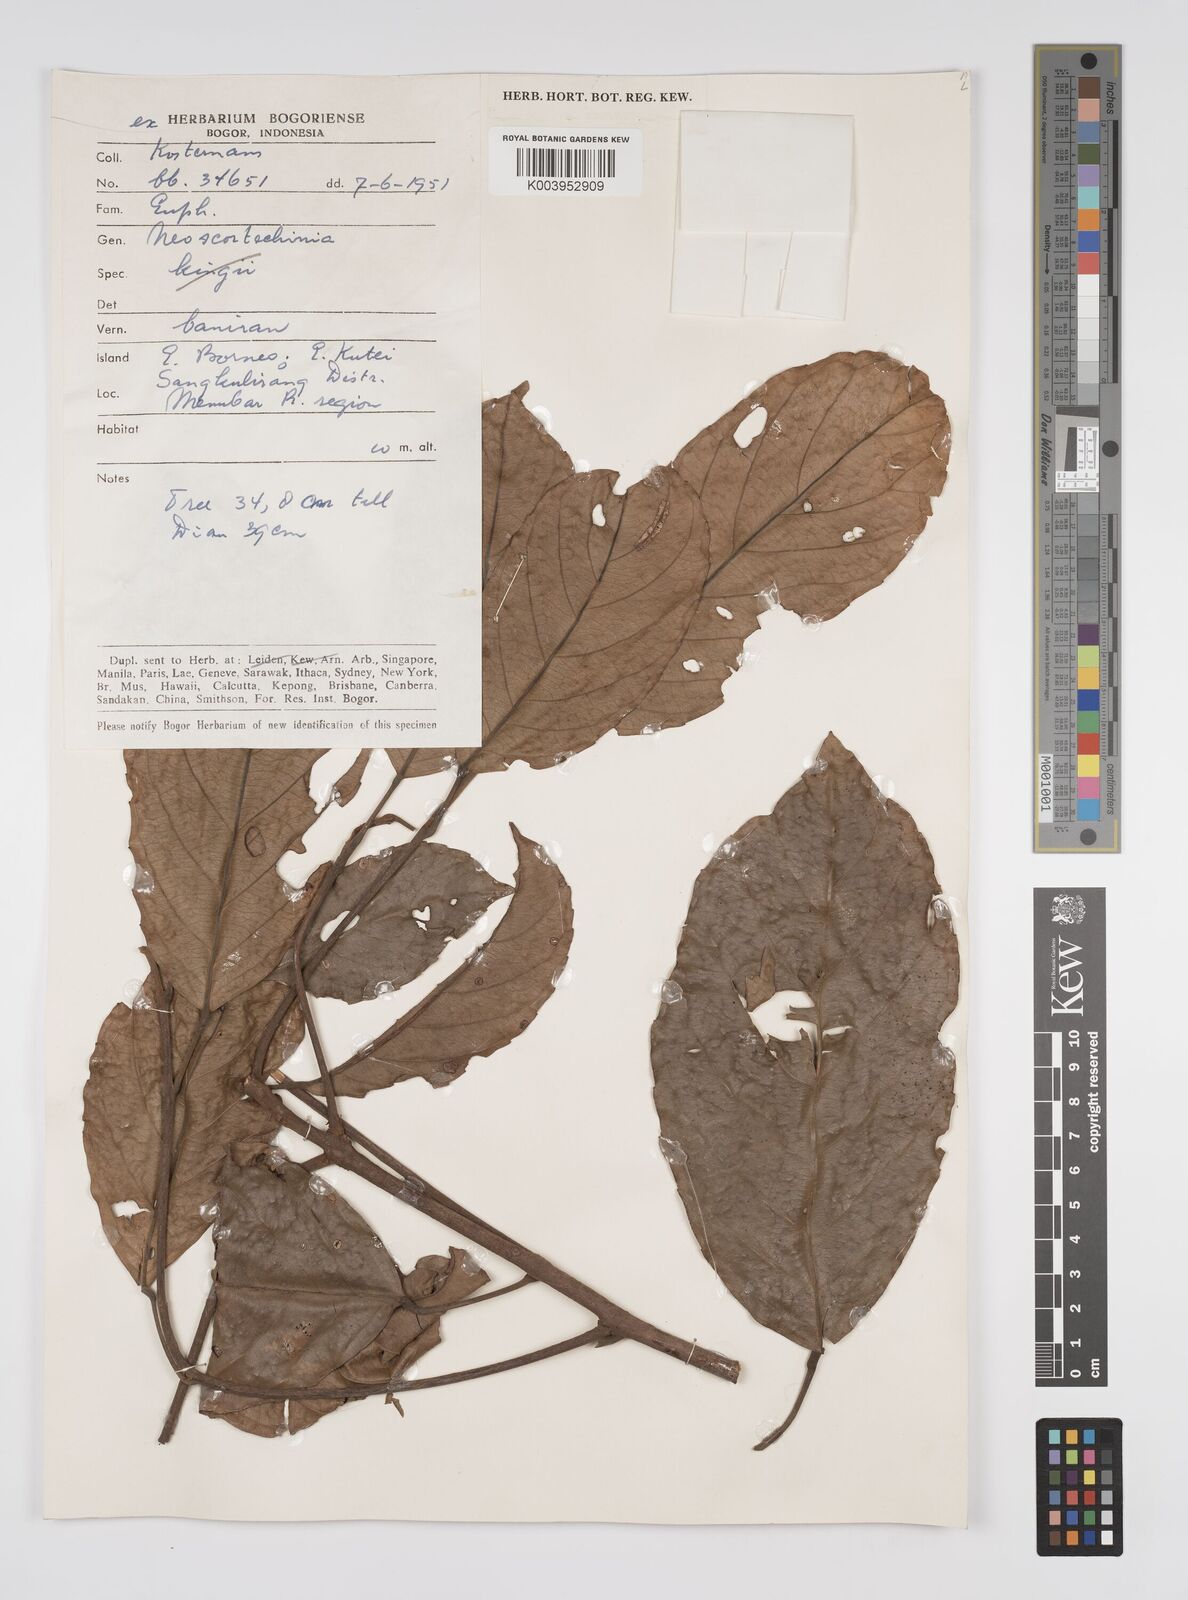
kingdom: Plantae
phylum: Tracheophyta
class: Magnoliopsida
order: Malpighiales
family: Euphorbiaceae
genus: Neoscortechinia
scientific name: Neoscortechinia philippinensis
